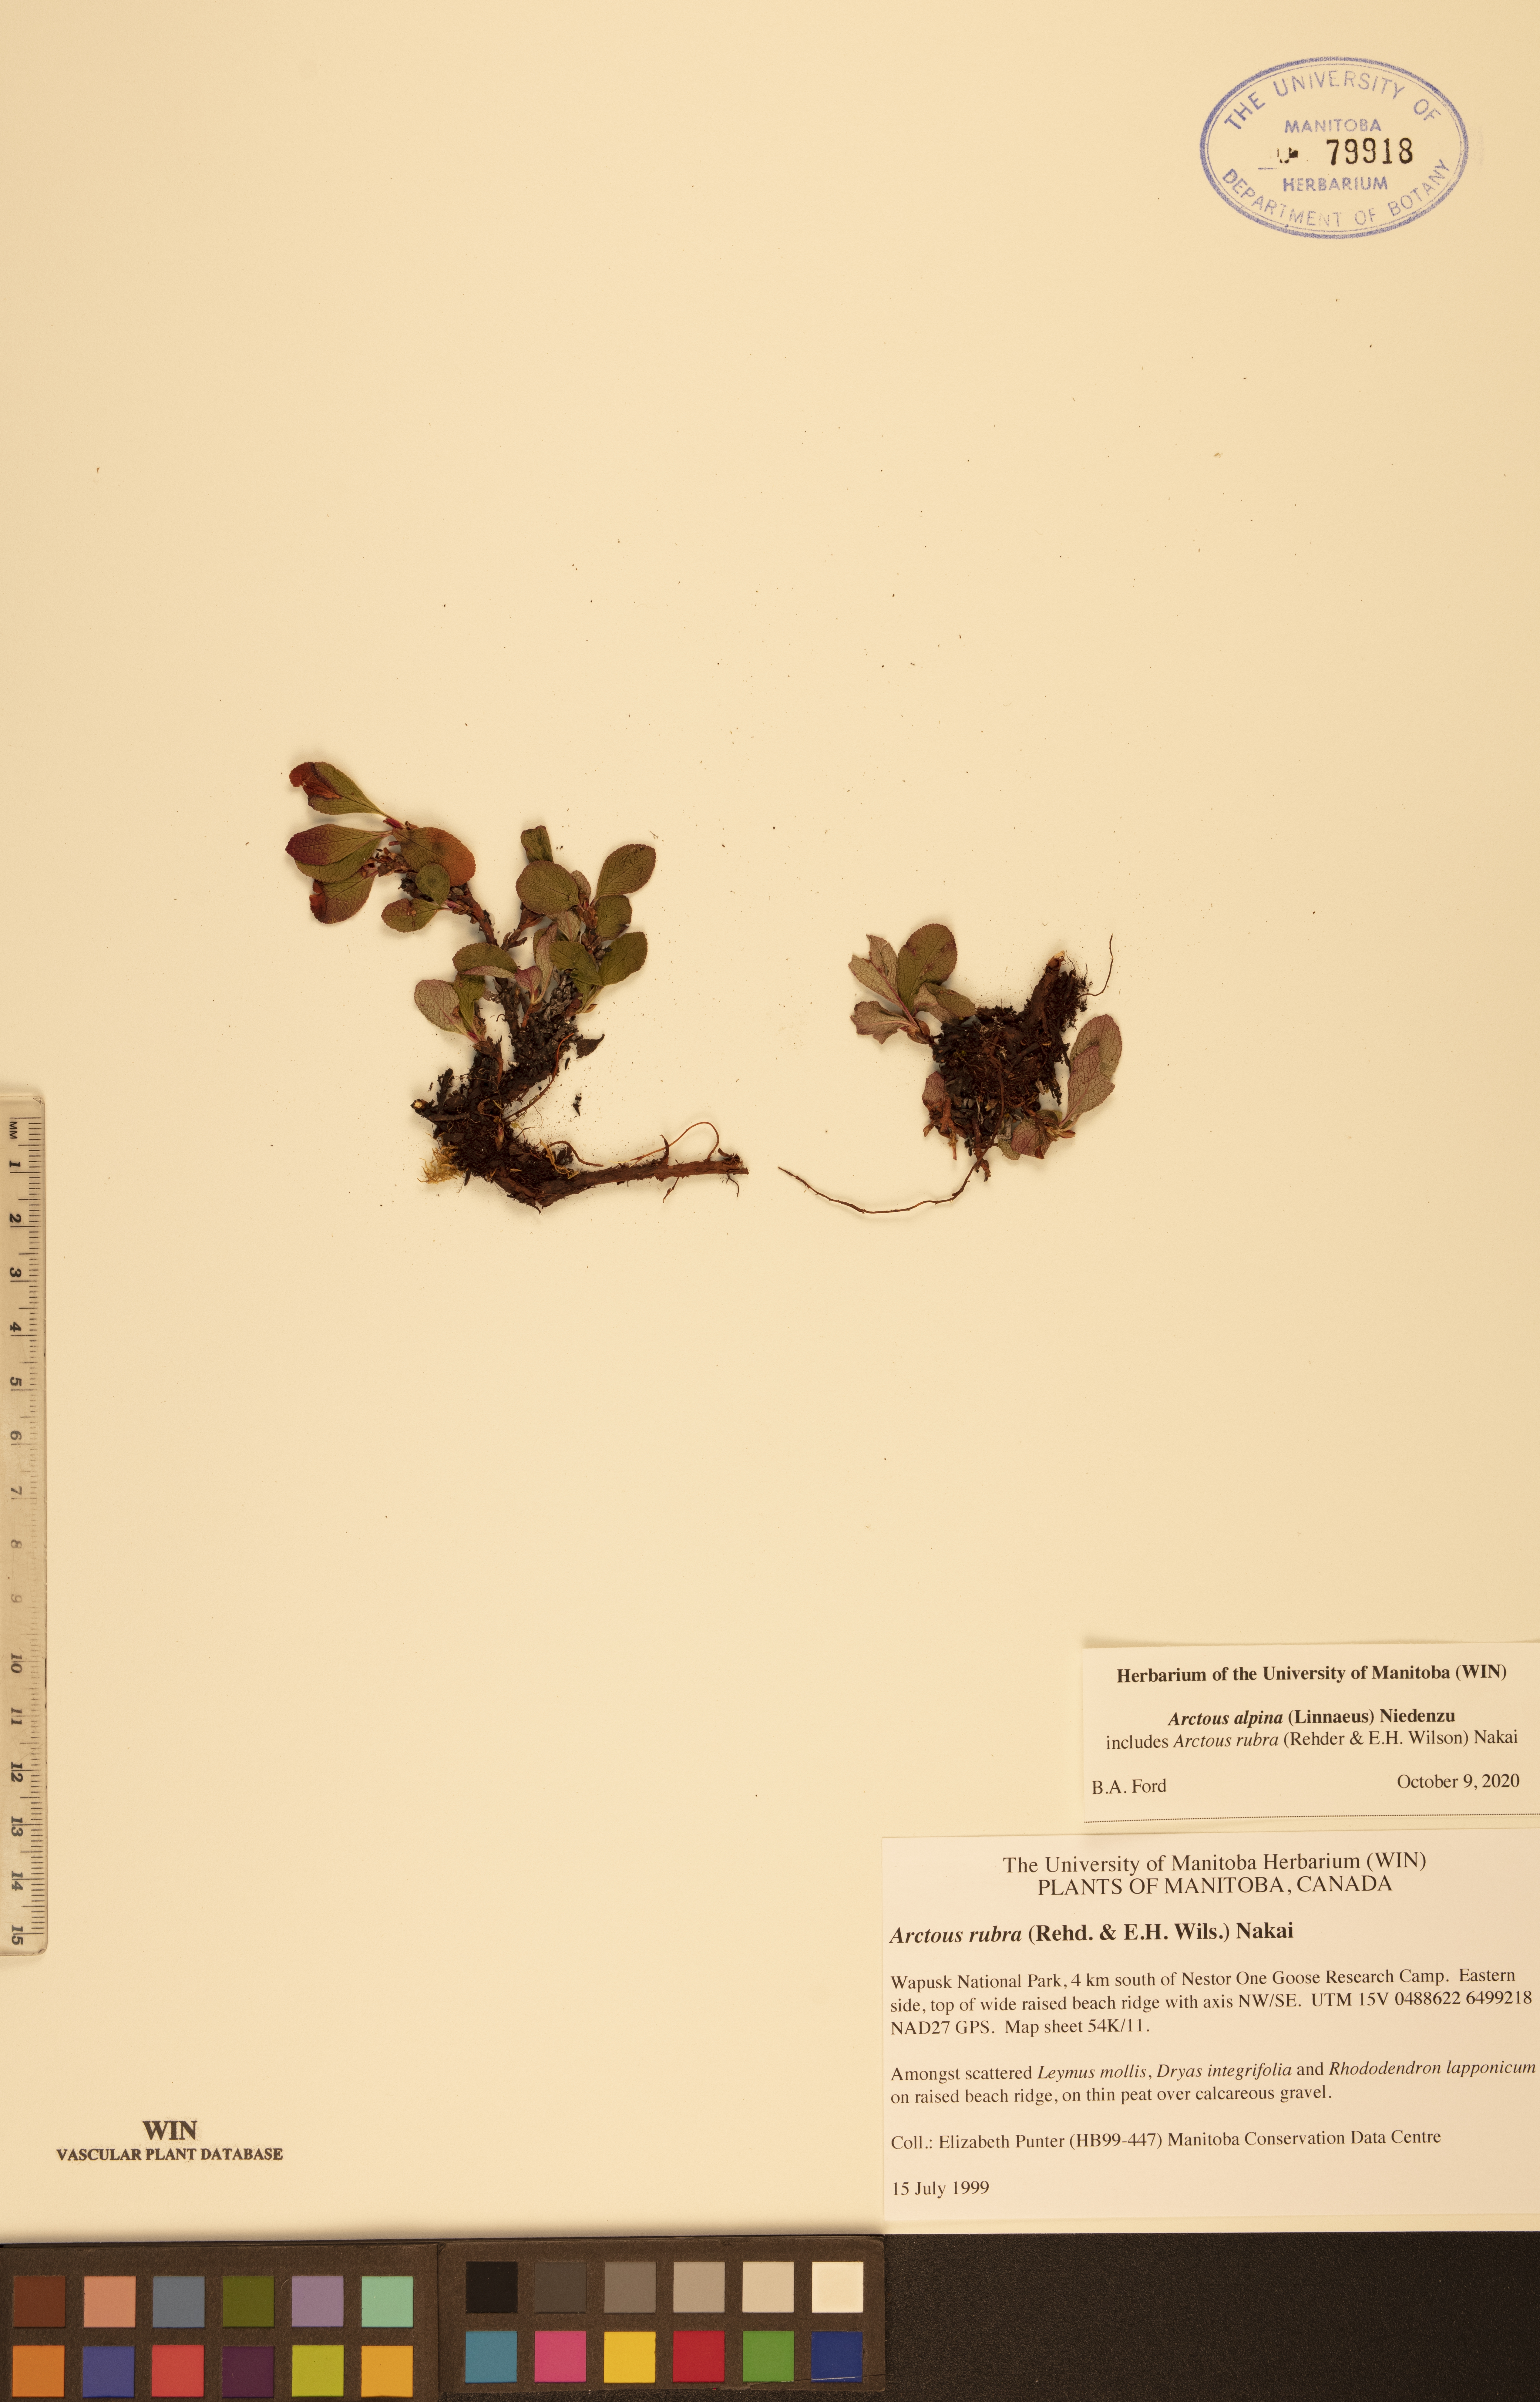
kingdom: Plantae
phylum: Tracheophyta
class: Magnoliopsida
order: Ericales
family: Ericaceae
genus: Arctostaphylos
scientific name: Arctostaphylos alpinus
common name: Alpine bearberry
